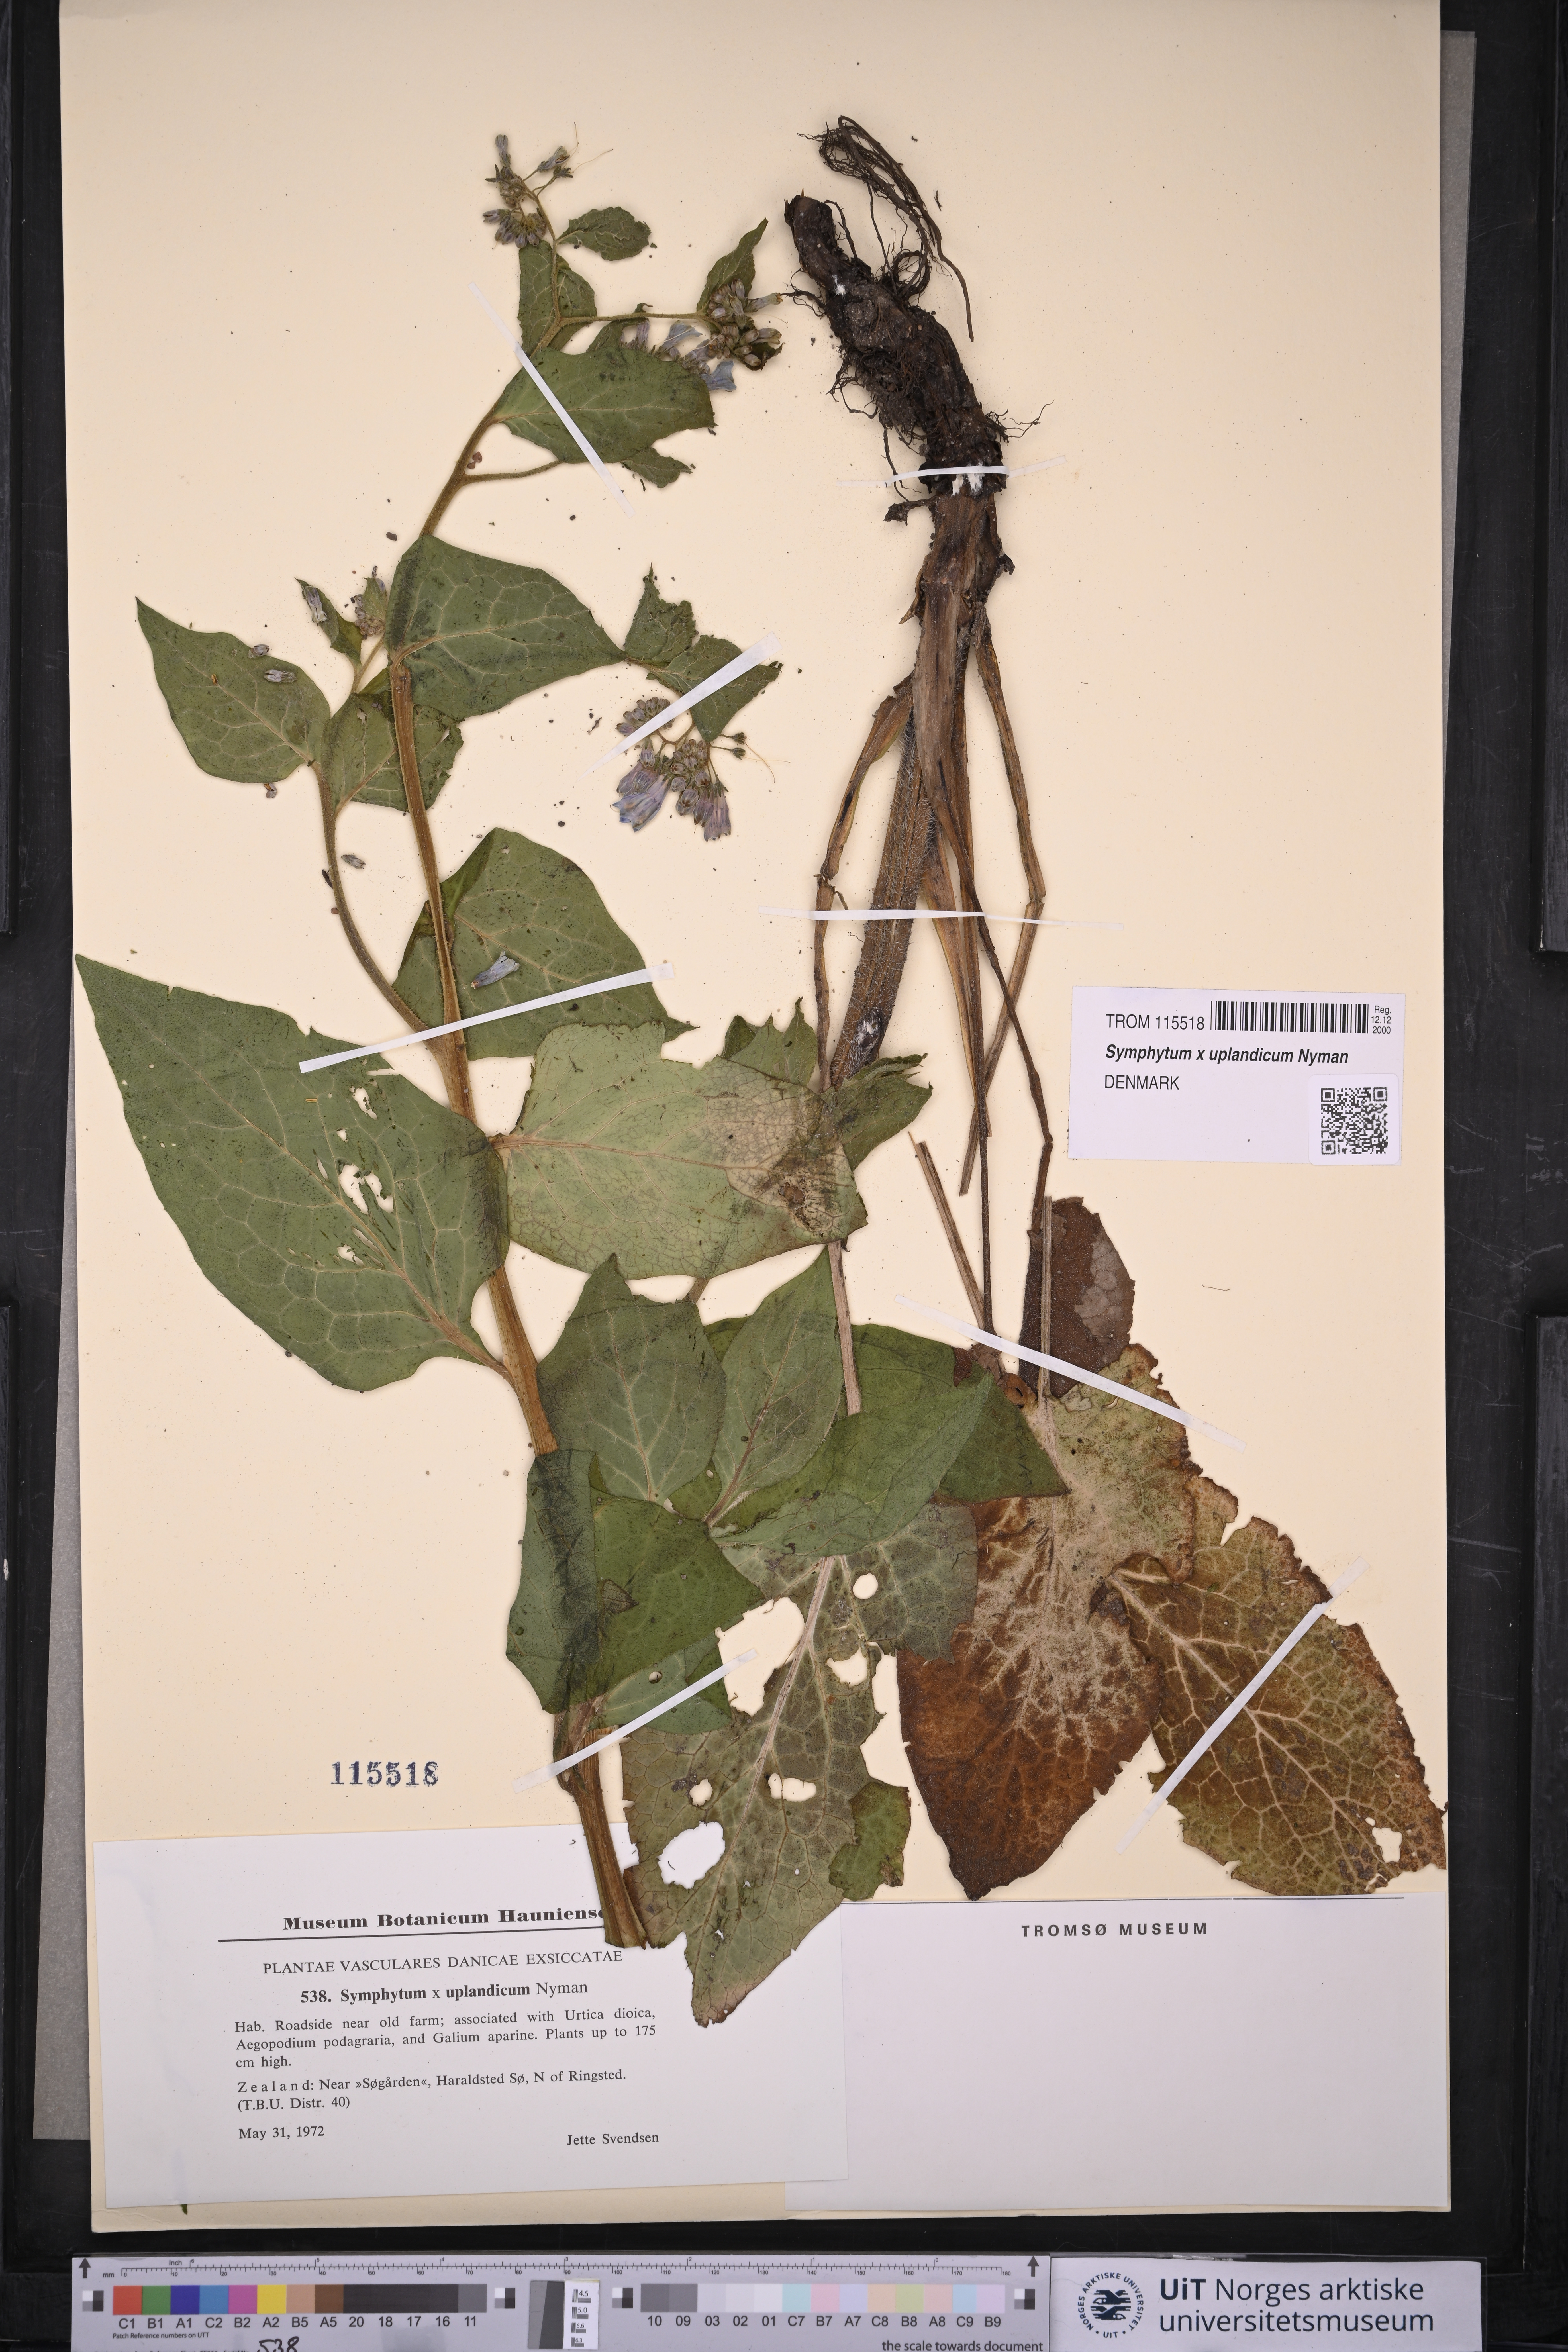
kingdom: Plantae
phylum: Tracheophyta
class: Magnoliopsida
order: Boraginales
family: Boraginaceae
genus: Symphytum
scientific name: Symphytum uplandicum
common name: Russian comfrey
